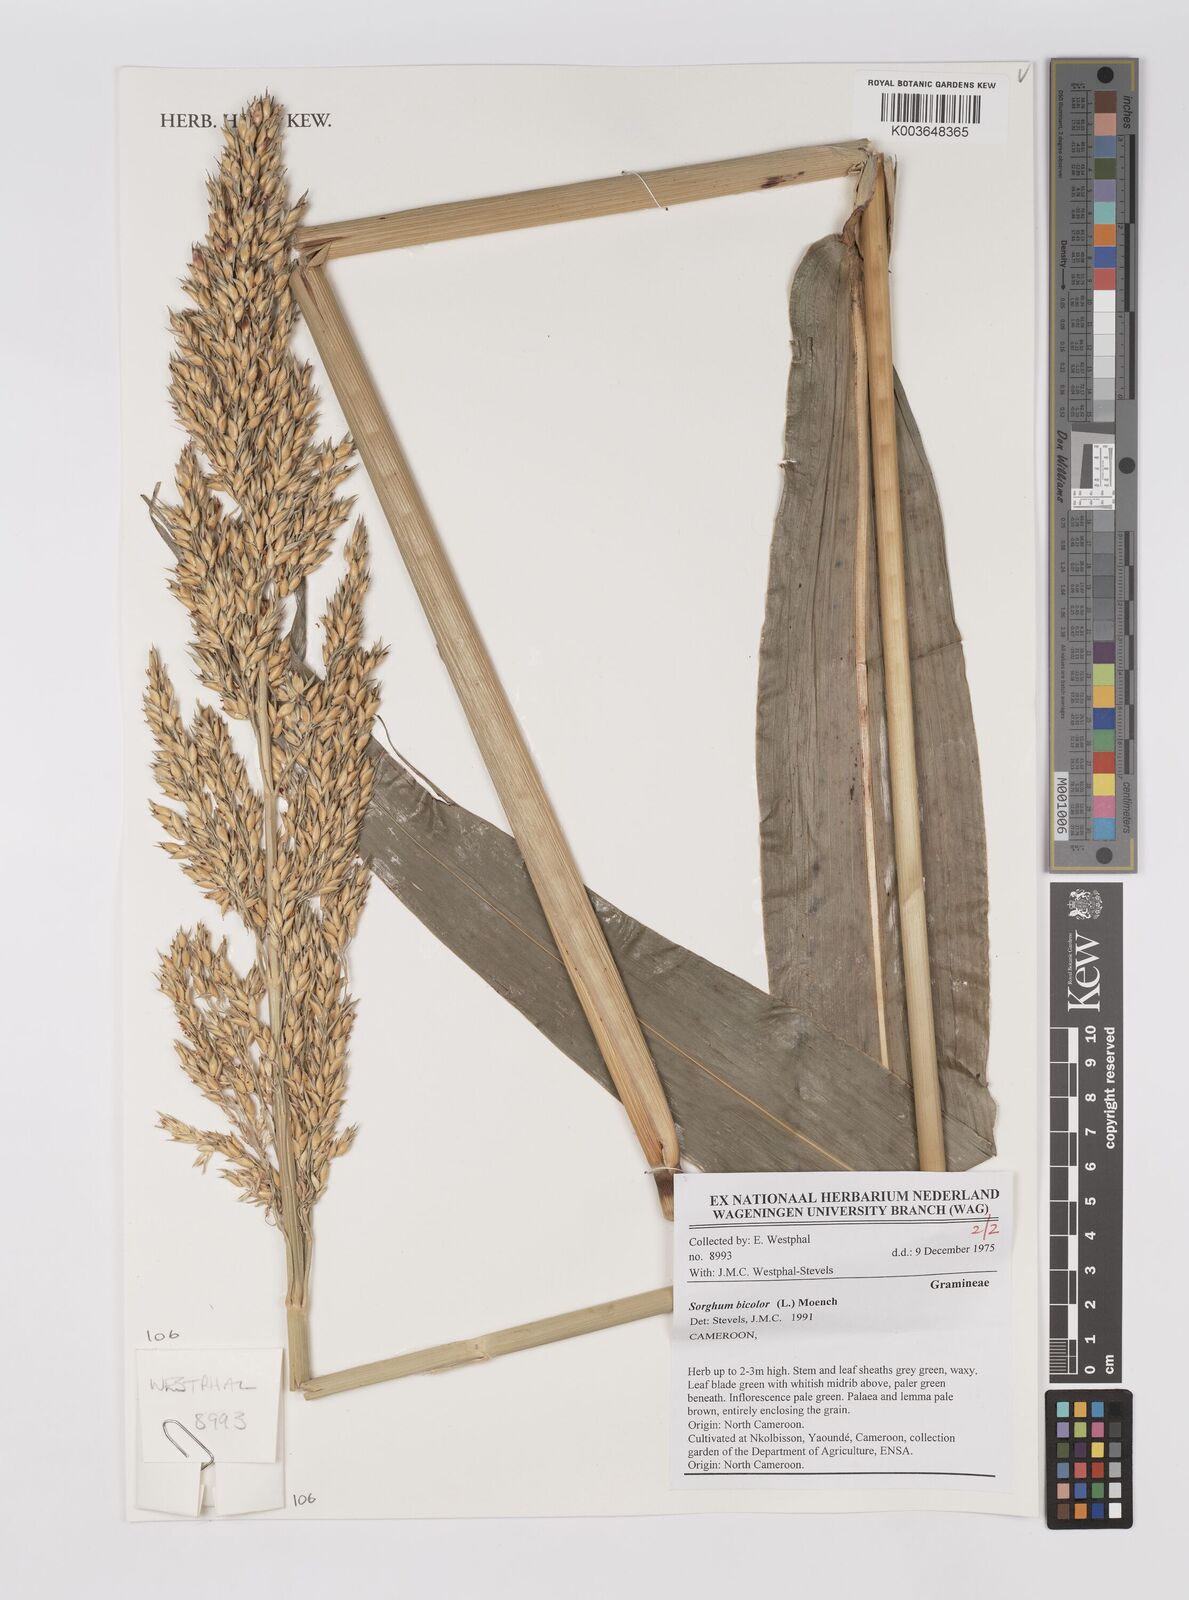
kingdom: Plantae
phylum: Tracheophyta
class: Liliopsida
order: Poales
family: Poaceae
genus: Sorghum
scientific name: Sorghum bicolor
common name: Sorghum
